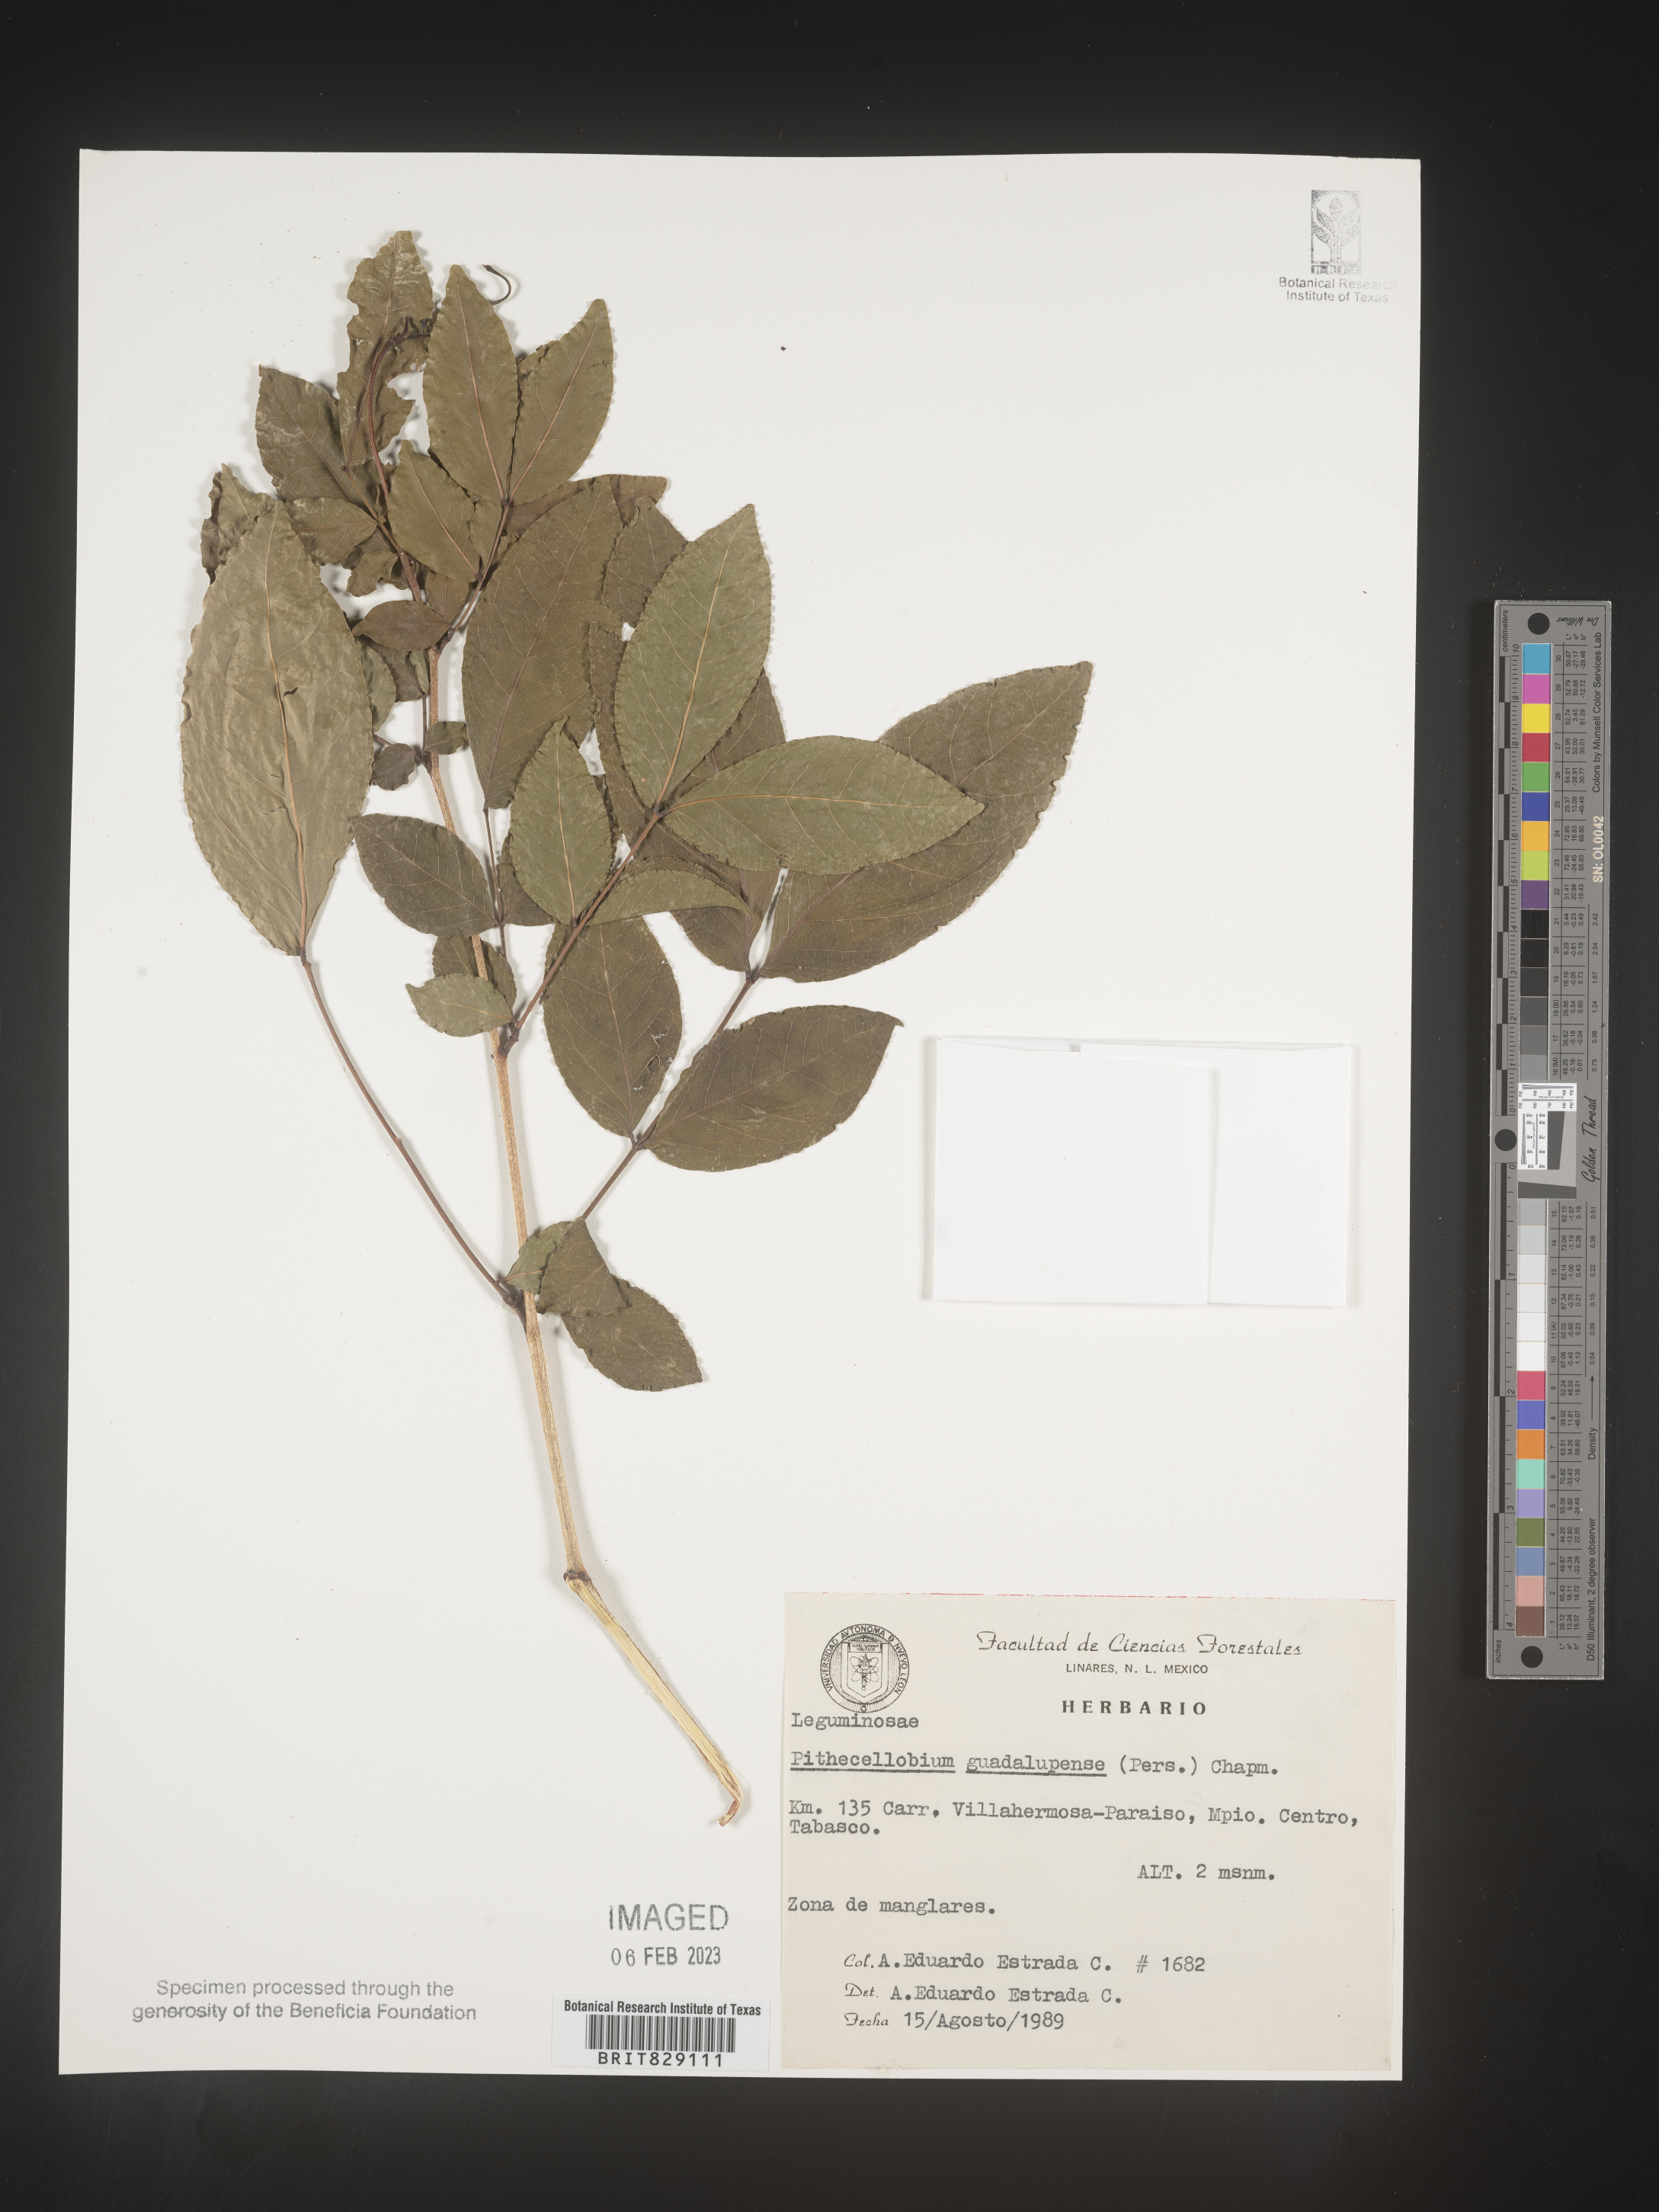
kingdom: Plantae
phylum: Tracheophyta
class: Magnoliopsida
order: Fabales
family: Fabaceae
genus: Pithecellobium
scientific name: Pithecellobium
